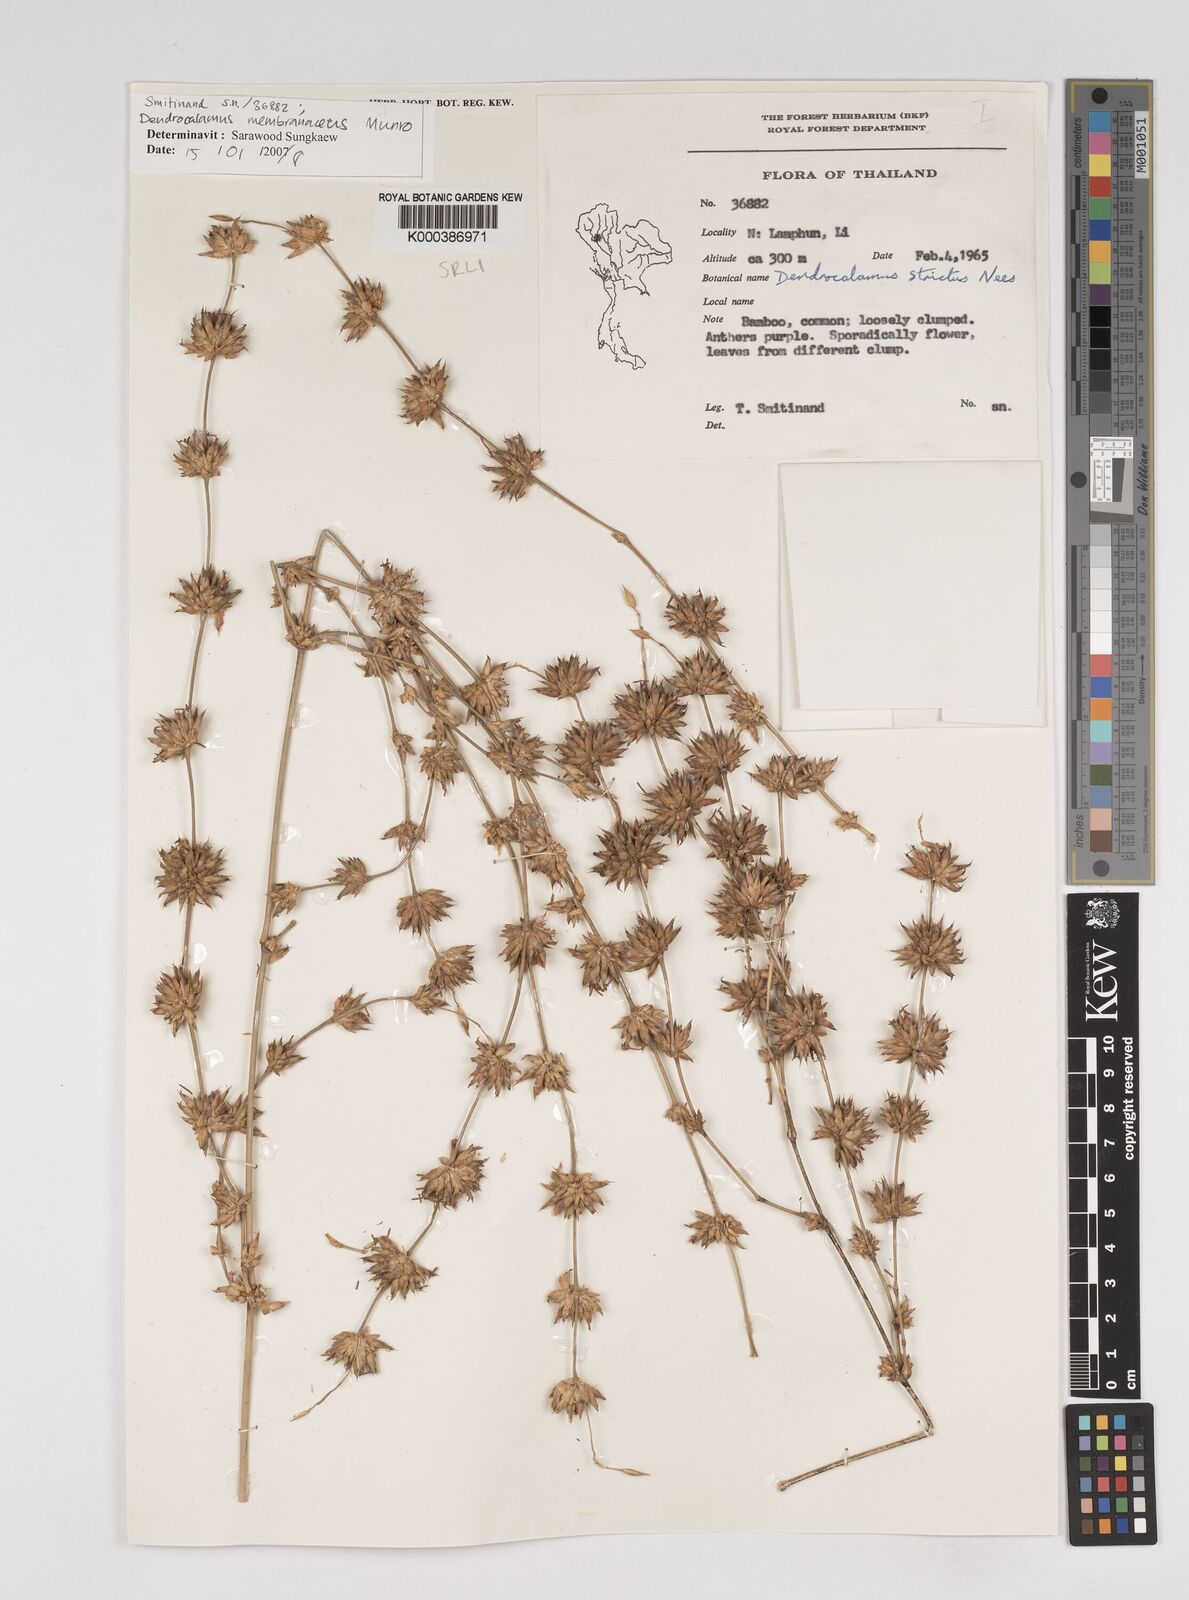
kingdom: Plantae
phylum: Tracheophyta
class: Liliopsida
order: Poales
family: Poaceae
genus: Dendrocalamus
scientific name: Dendrocalamus membranaceus
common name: White bamboo
